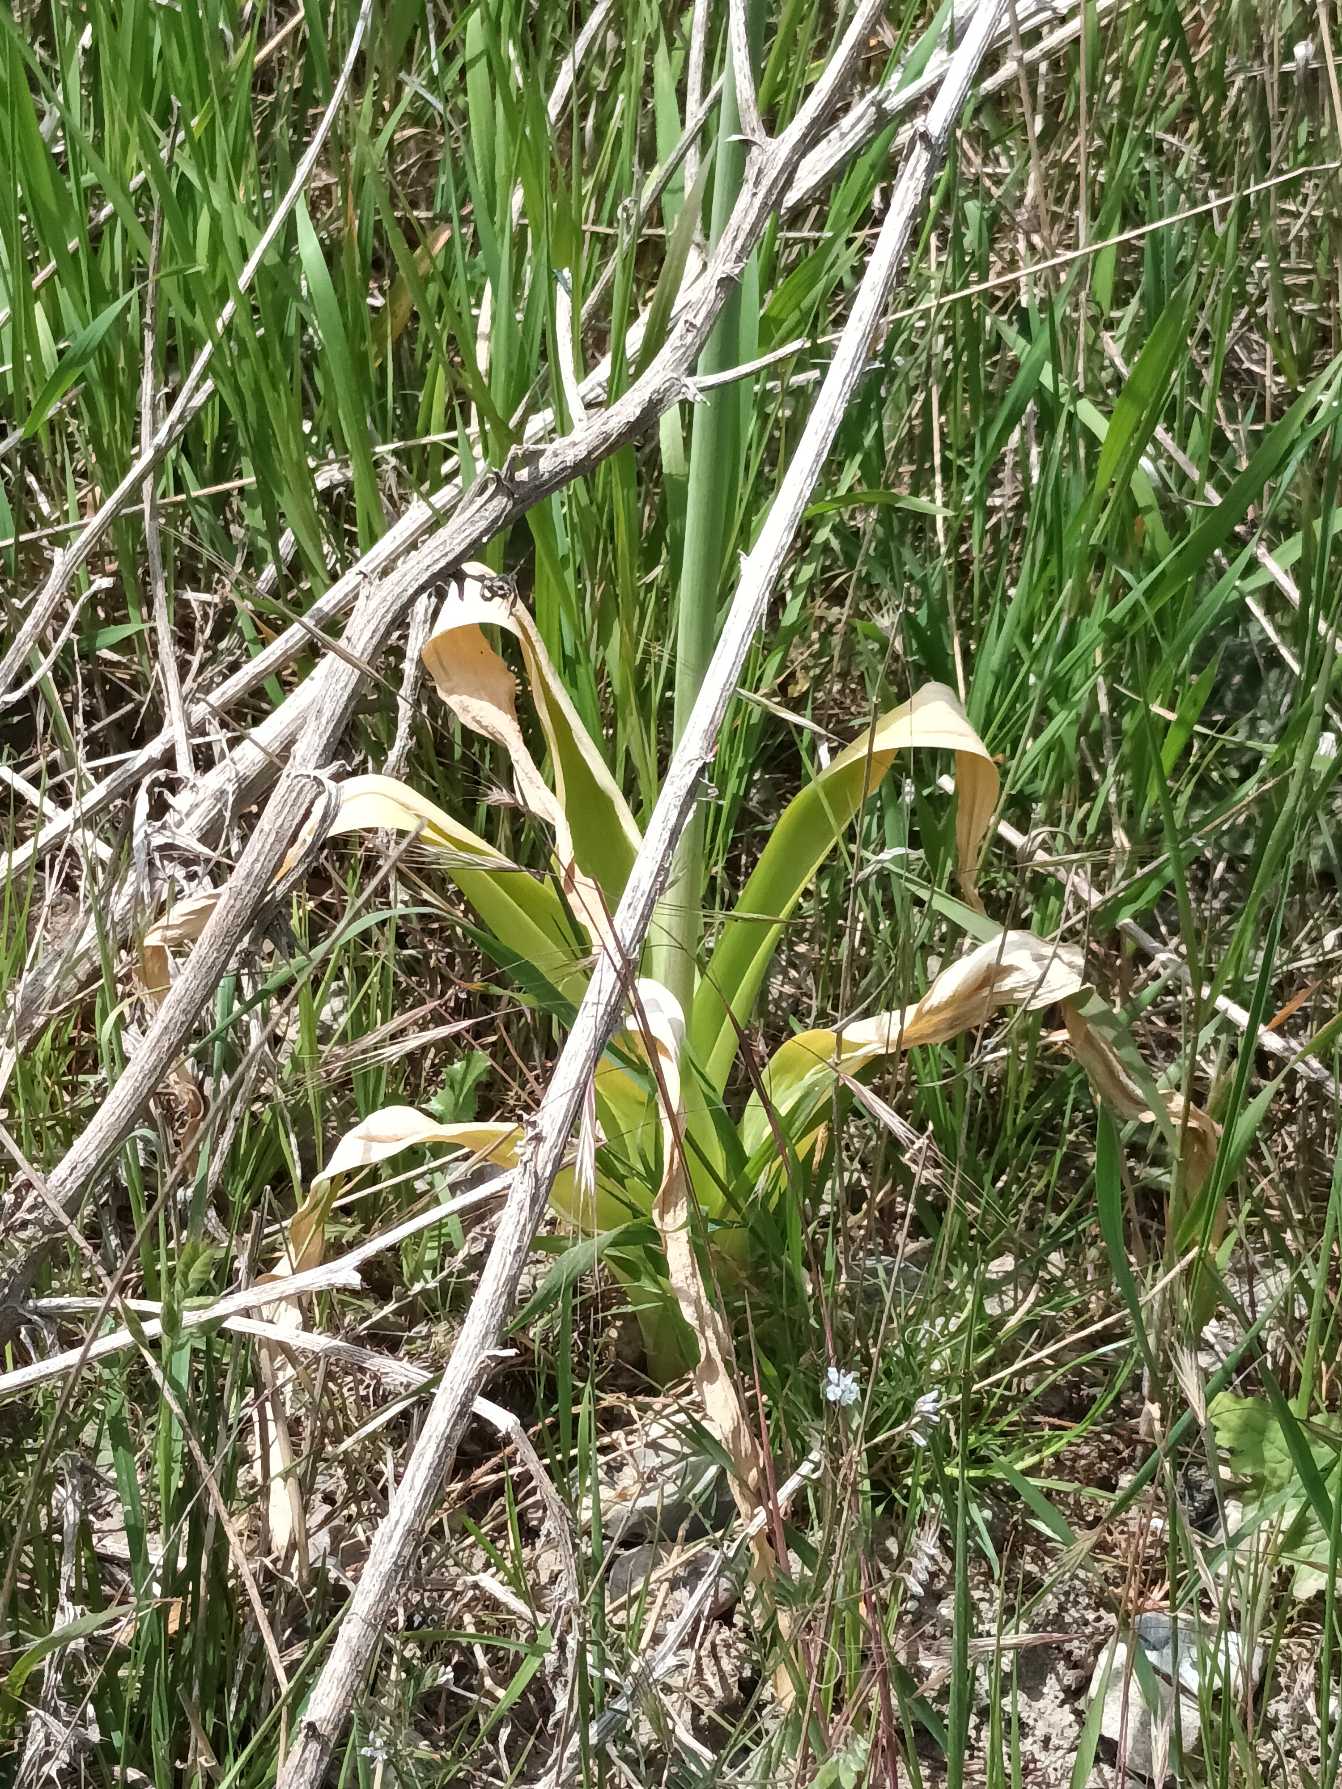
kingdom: Plantae
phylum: Tracheophyta
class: Liliopsida
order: Asparagales
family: Amaryllidaceae
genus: Allium
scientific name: Allium hollandicum
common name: Kirgisisk pryd-løg
